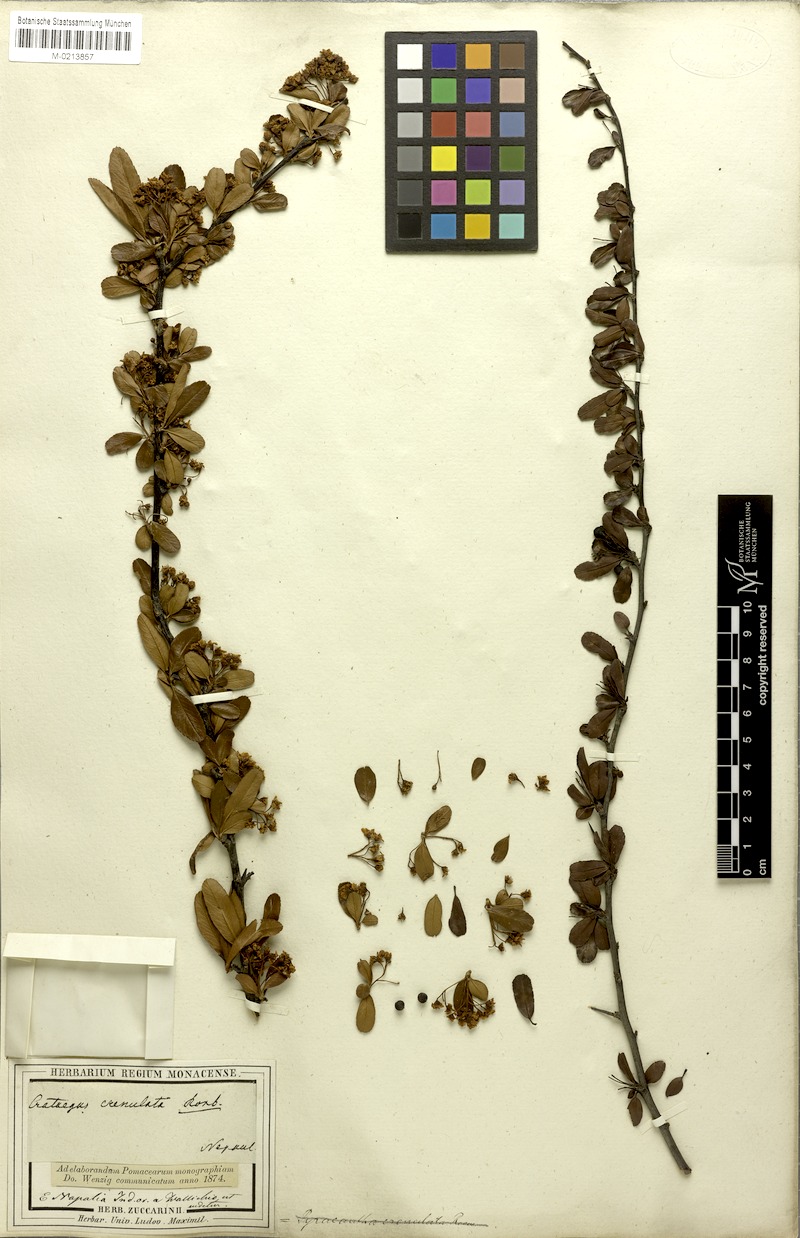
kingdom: Plantae
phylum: Tracheophyta
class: Magnoliopsida
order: Rosales
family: Rosaceae
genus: Pyracantha
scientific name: Pyracantha crenulata
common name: Nepalese firethorn
